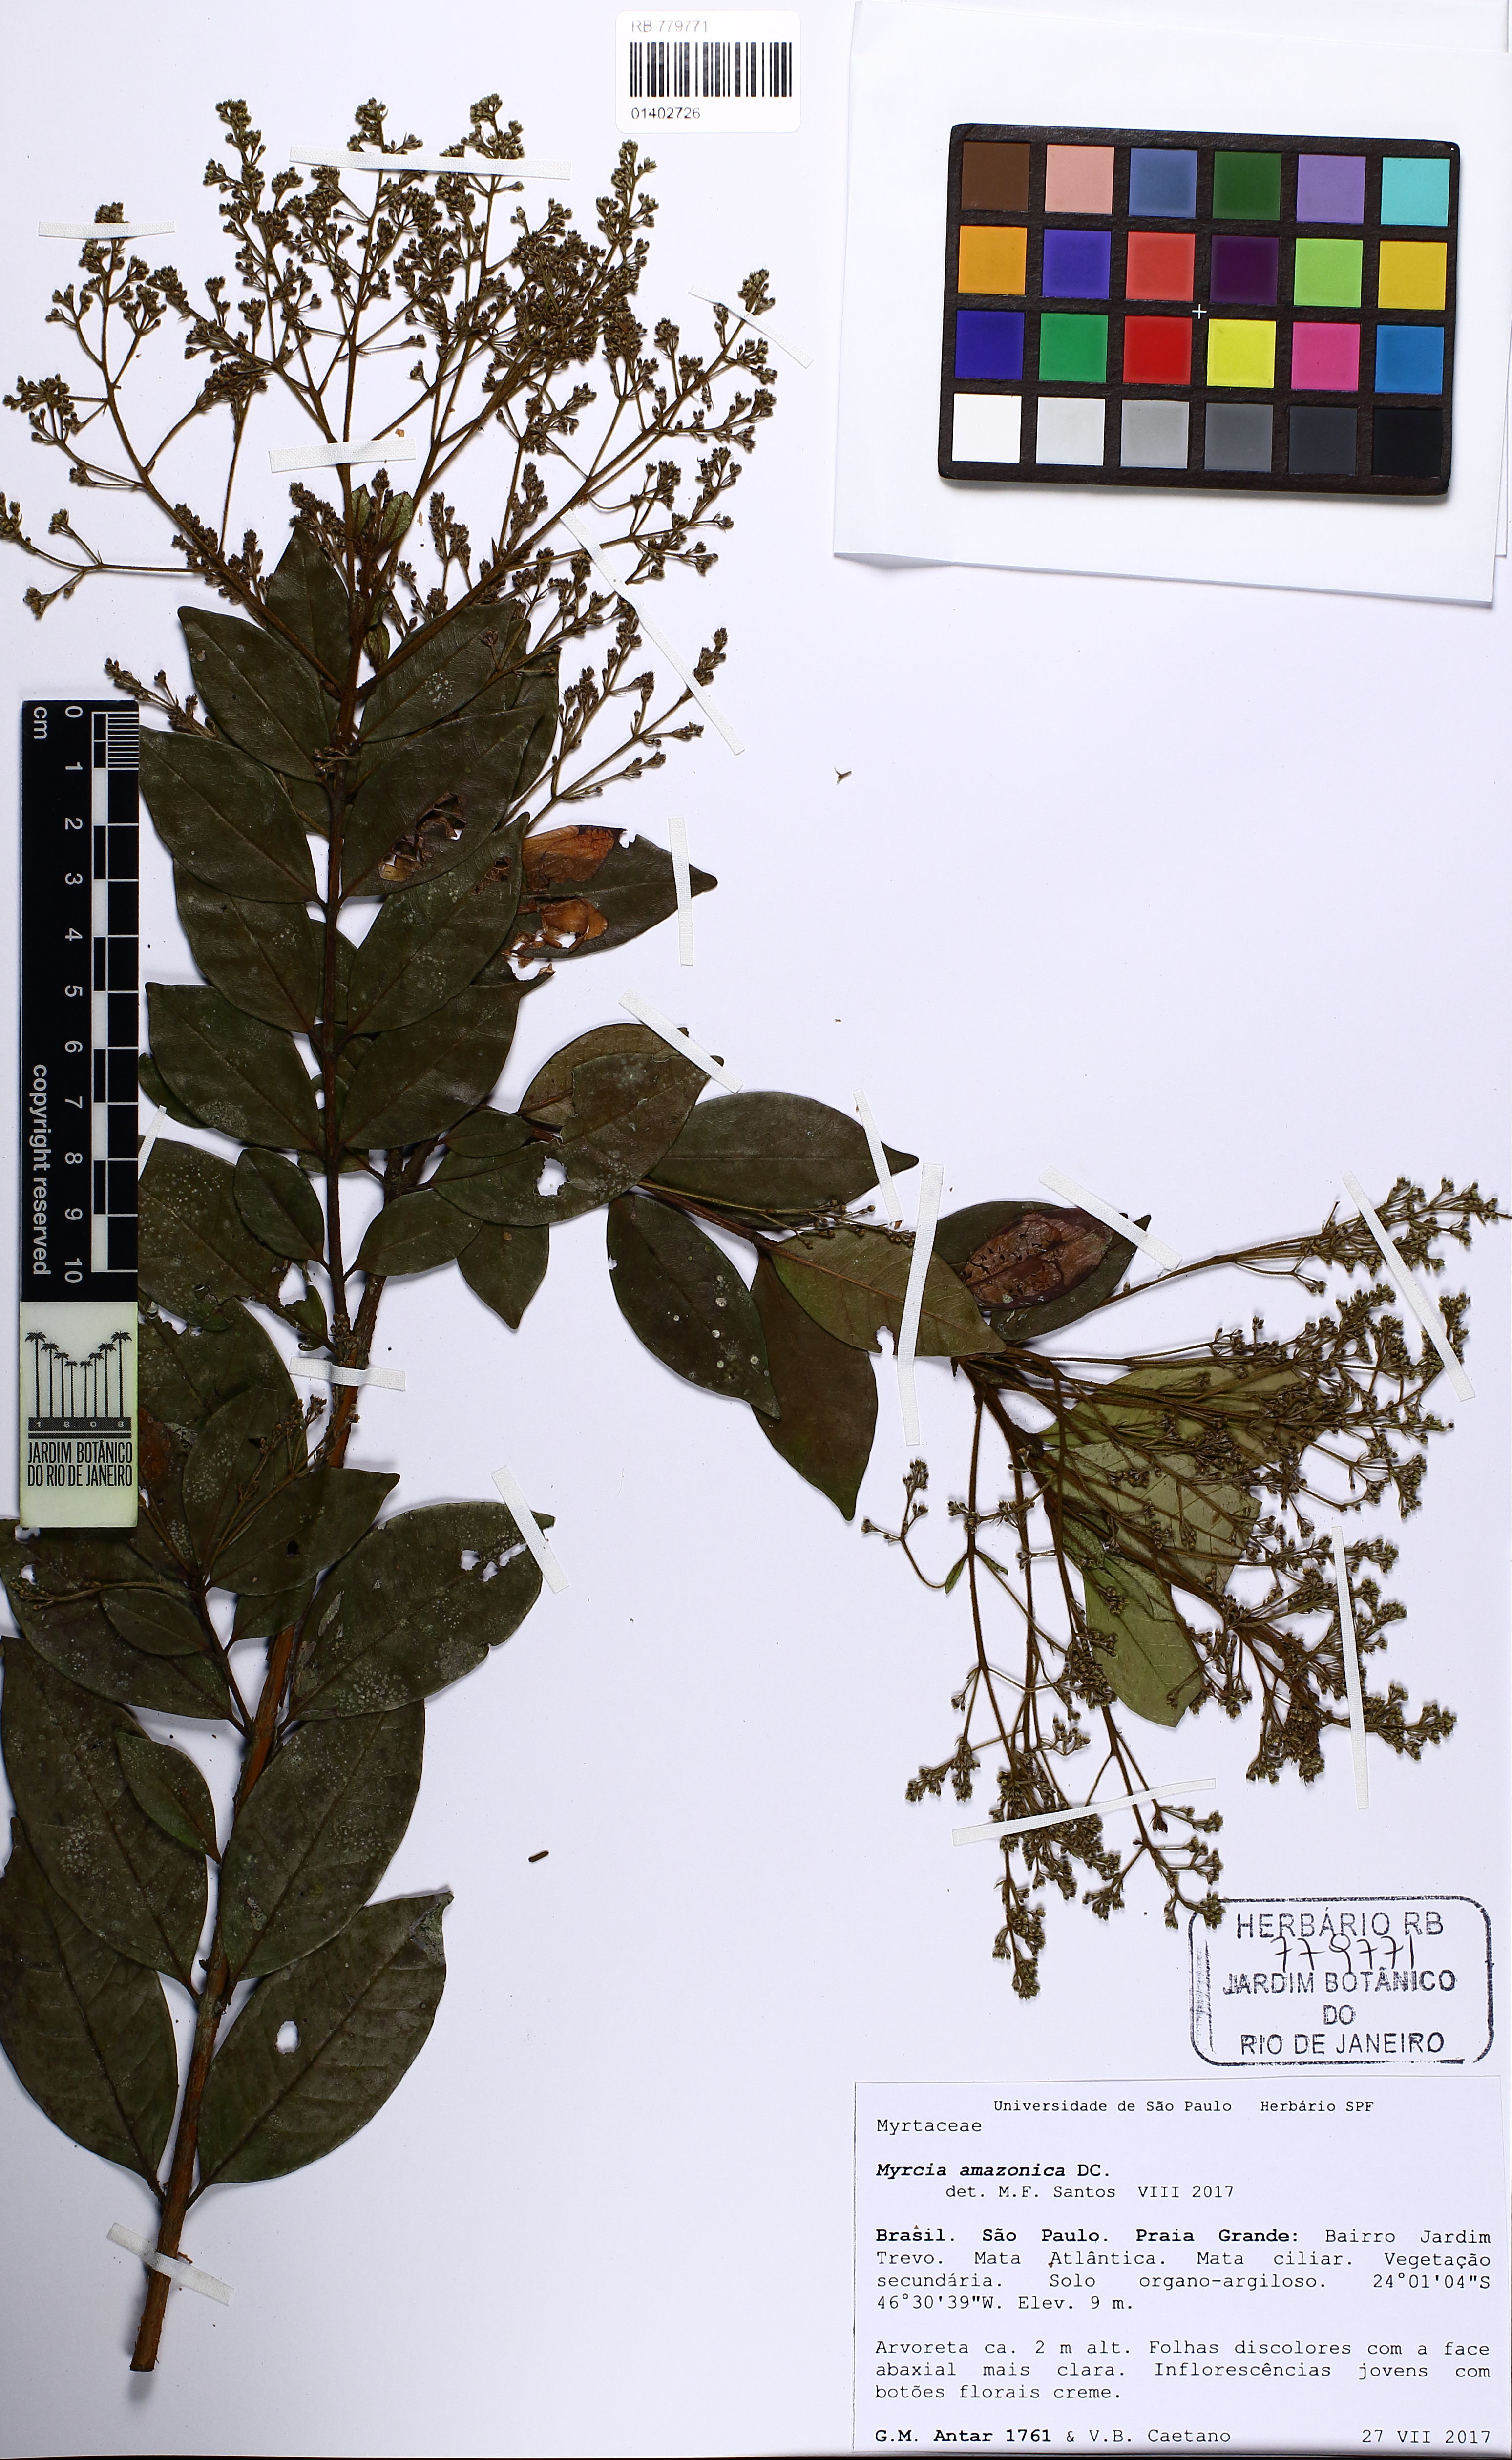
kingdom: Plantae
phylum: Tracheophyta
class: Magnoliopsida
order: Myrtales
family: Myrtaceae
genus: Myrcia
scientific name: Myrcia amazonica
